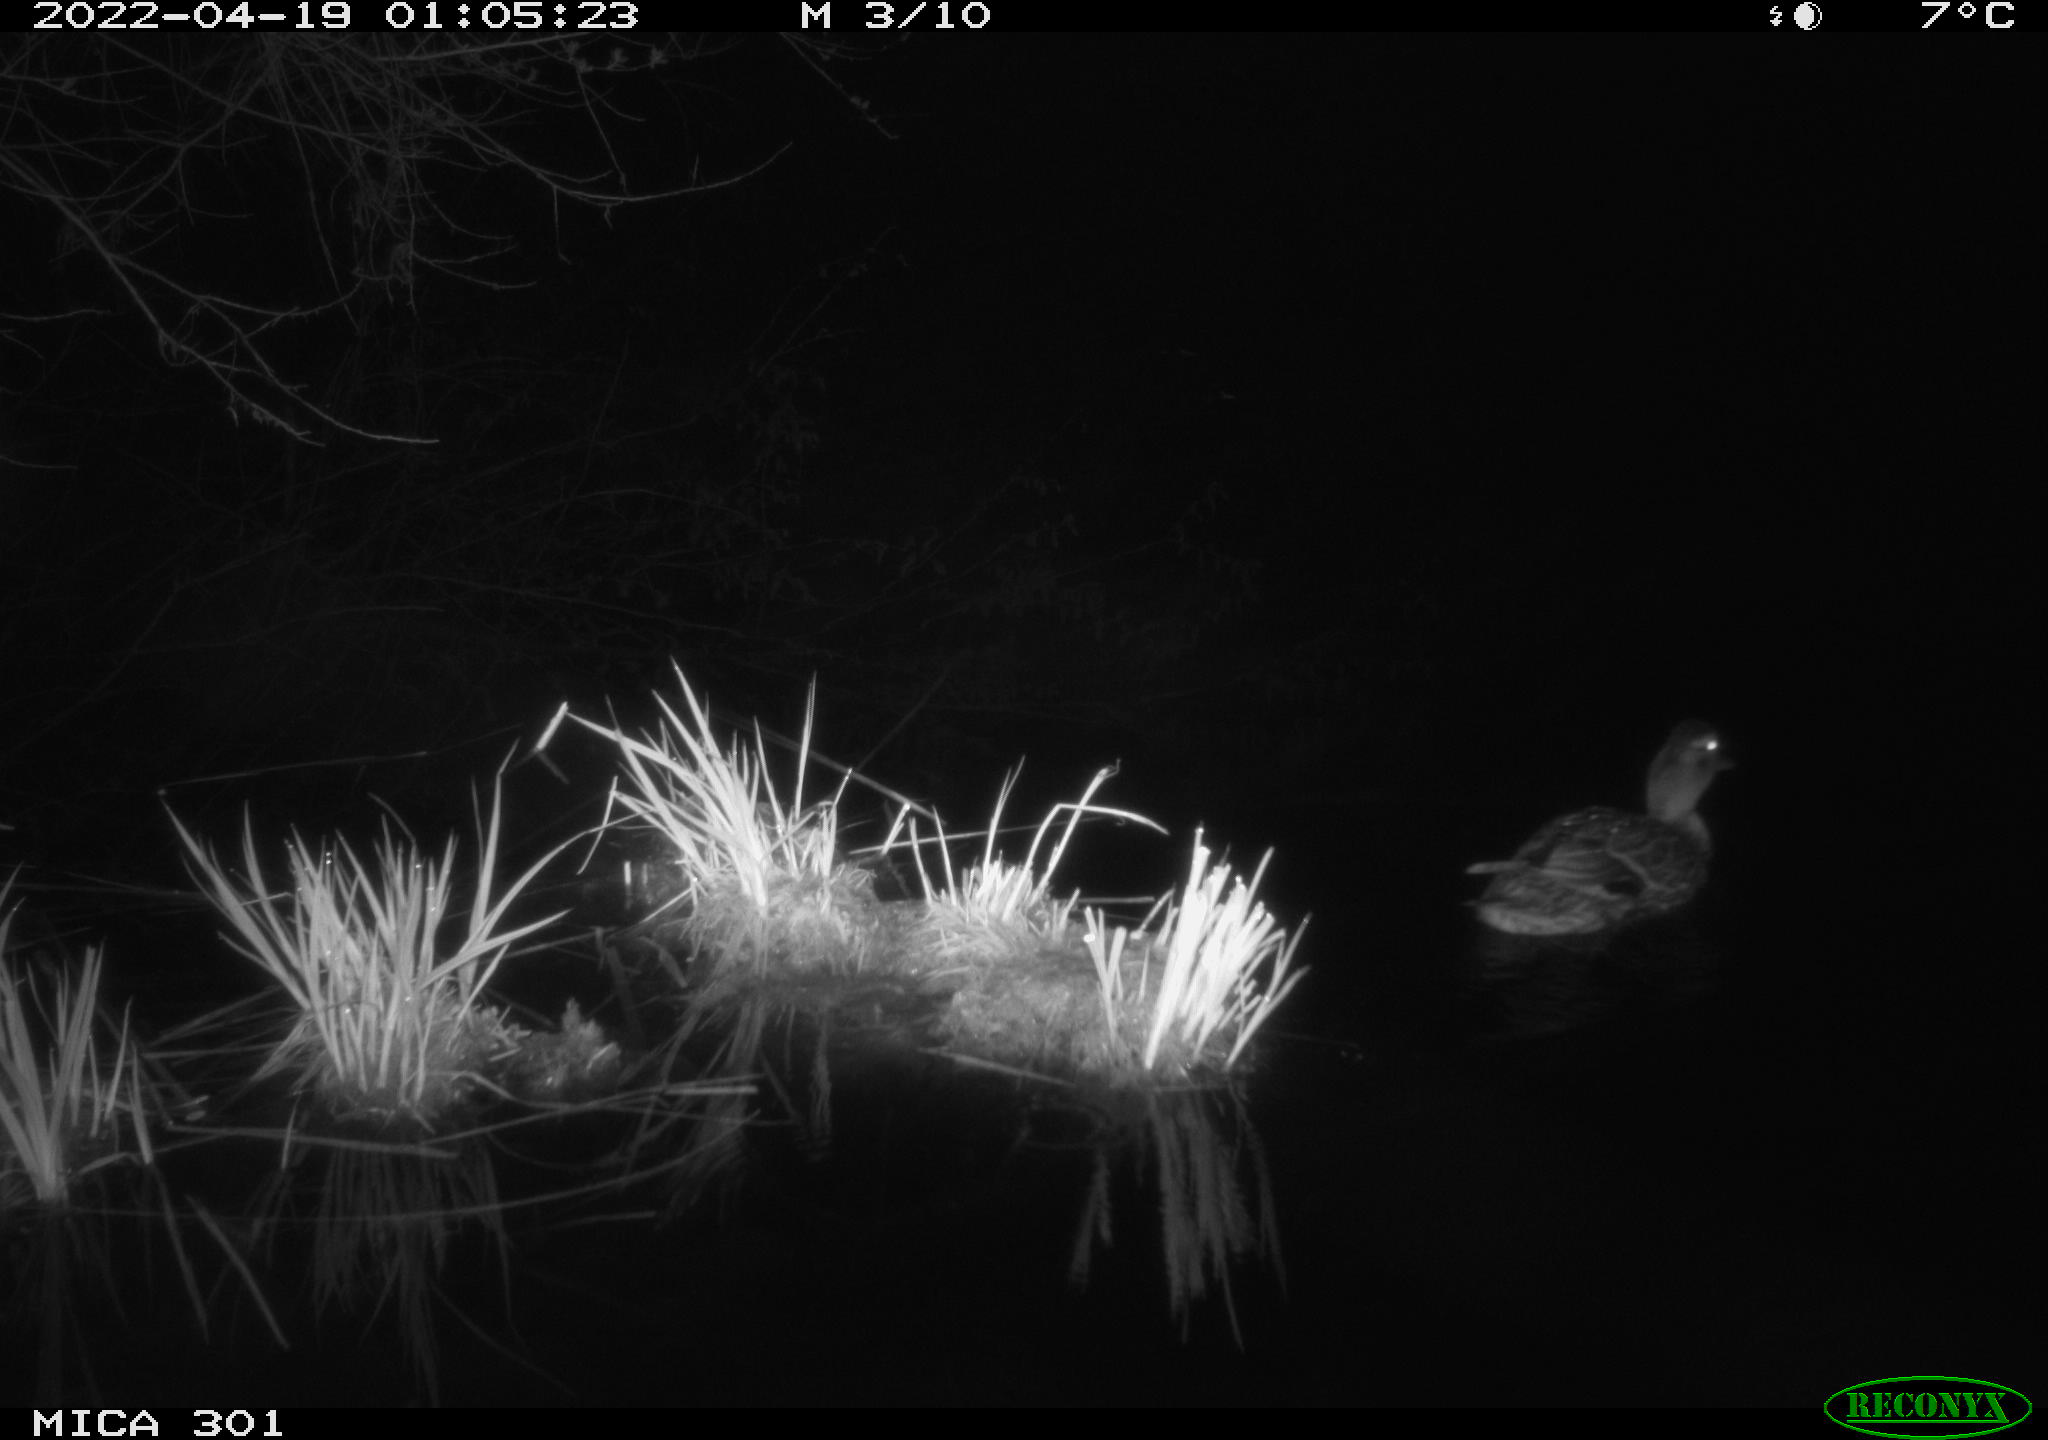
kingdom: Animalia
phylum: Chordata
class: Aves
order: Anseriformes
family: Anatidae
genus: Anas
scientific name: Anas platyrhynchos
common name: Mallard
